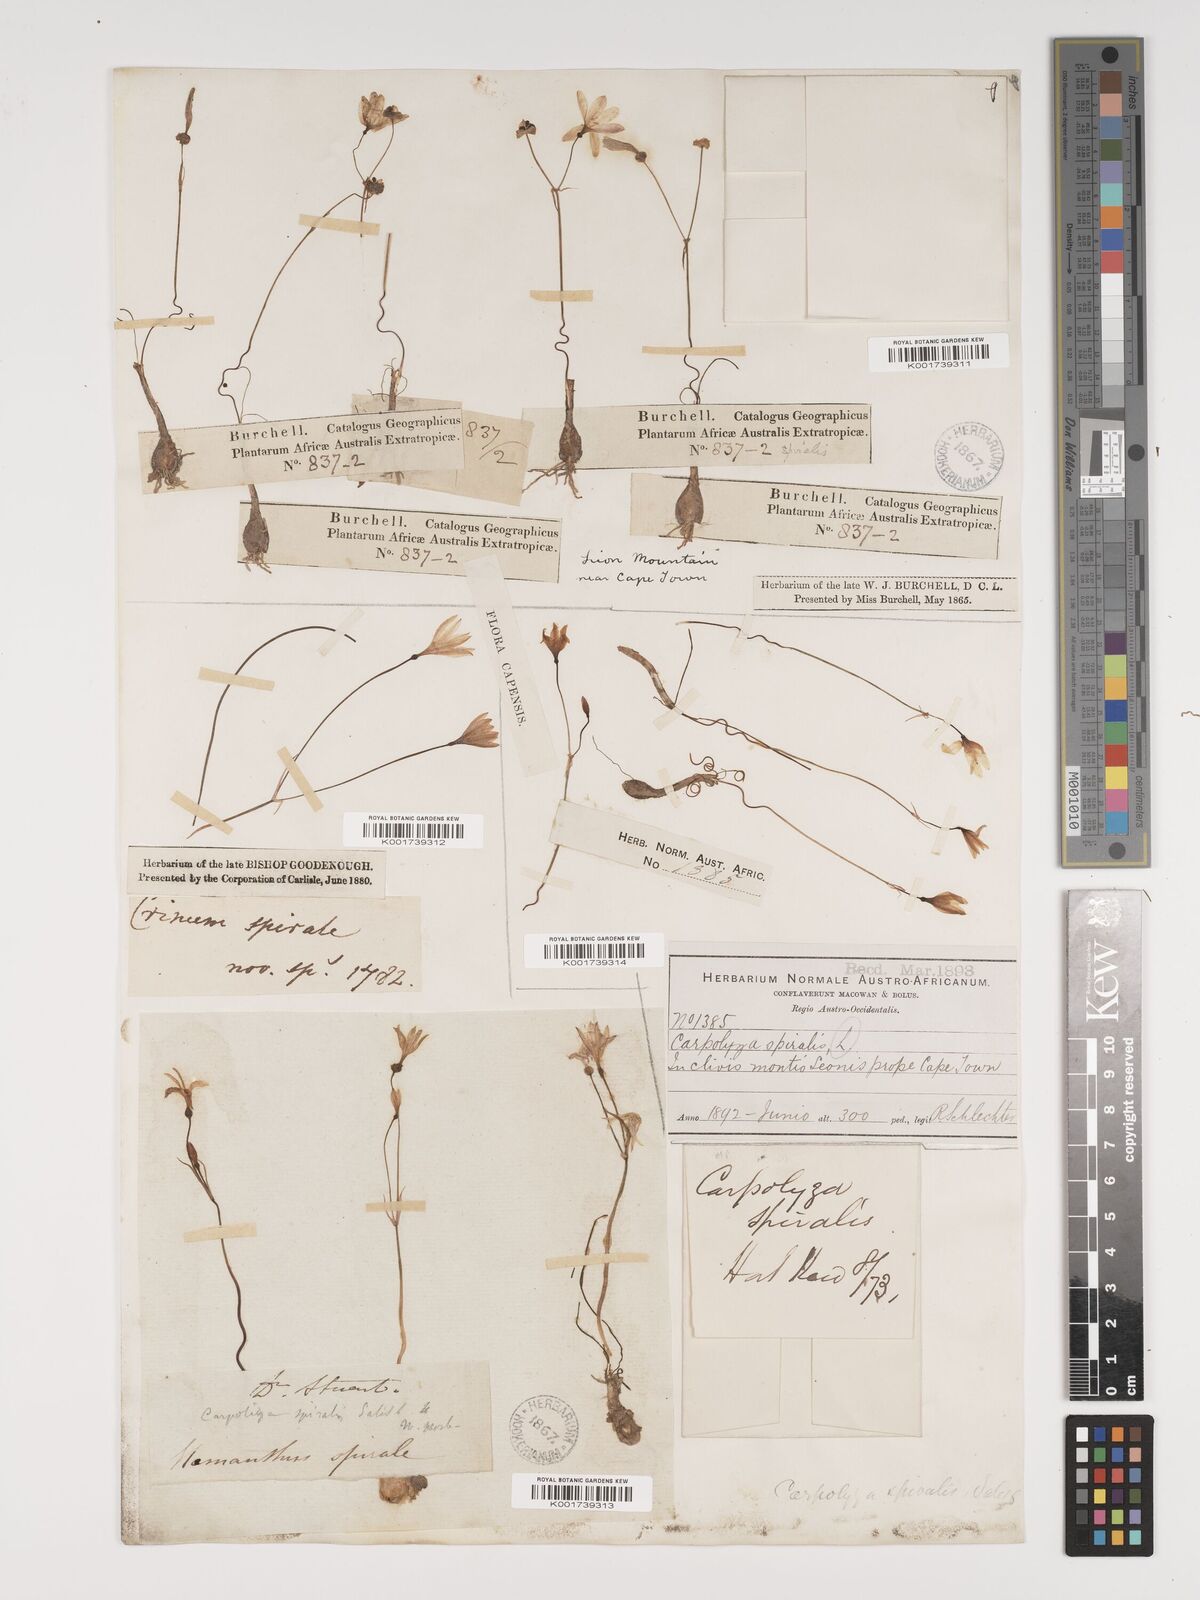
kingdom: Plantae
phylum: Tracheophyta
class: Liliopsida
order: Asparagales
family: Amaryllidaceae
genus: Strumaria
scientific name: Strumaria spiralis
